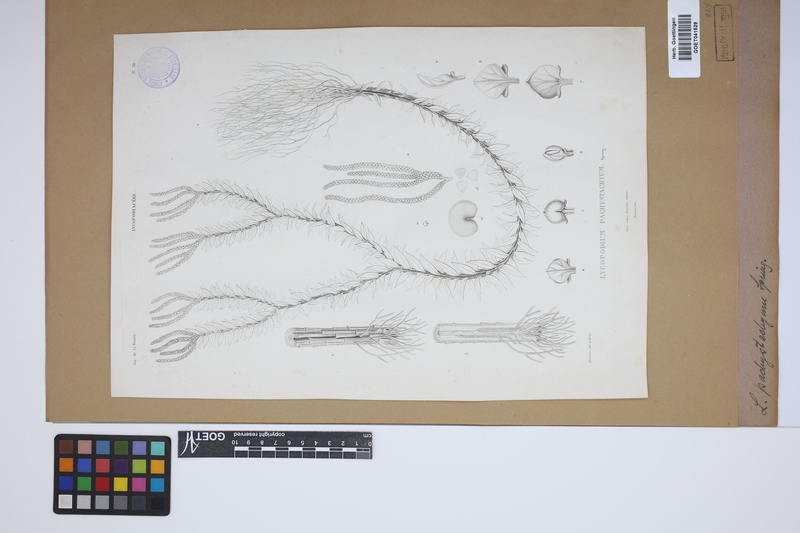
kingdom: Plantae
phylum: Tracheophyta
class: Lycopodiopsida
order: Lycopodiales
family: Lycopodiaceae
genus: Phlegmariurus
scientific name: Phlegmariurus phyllanthus
